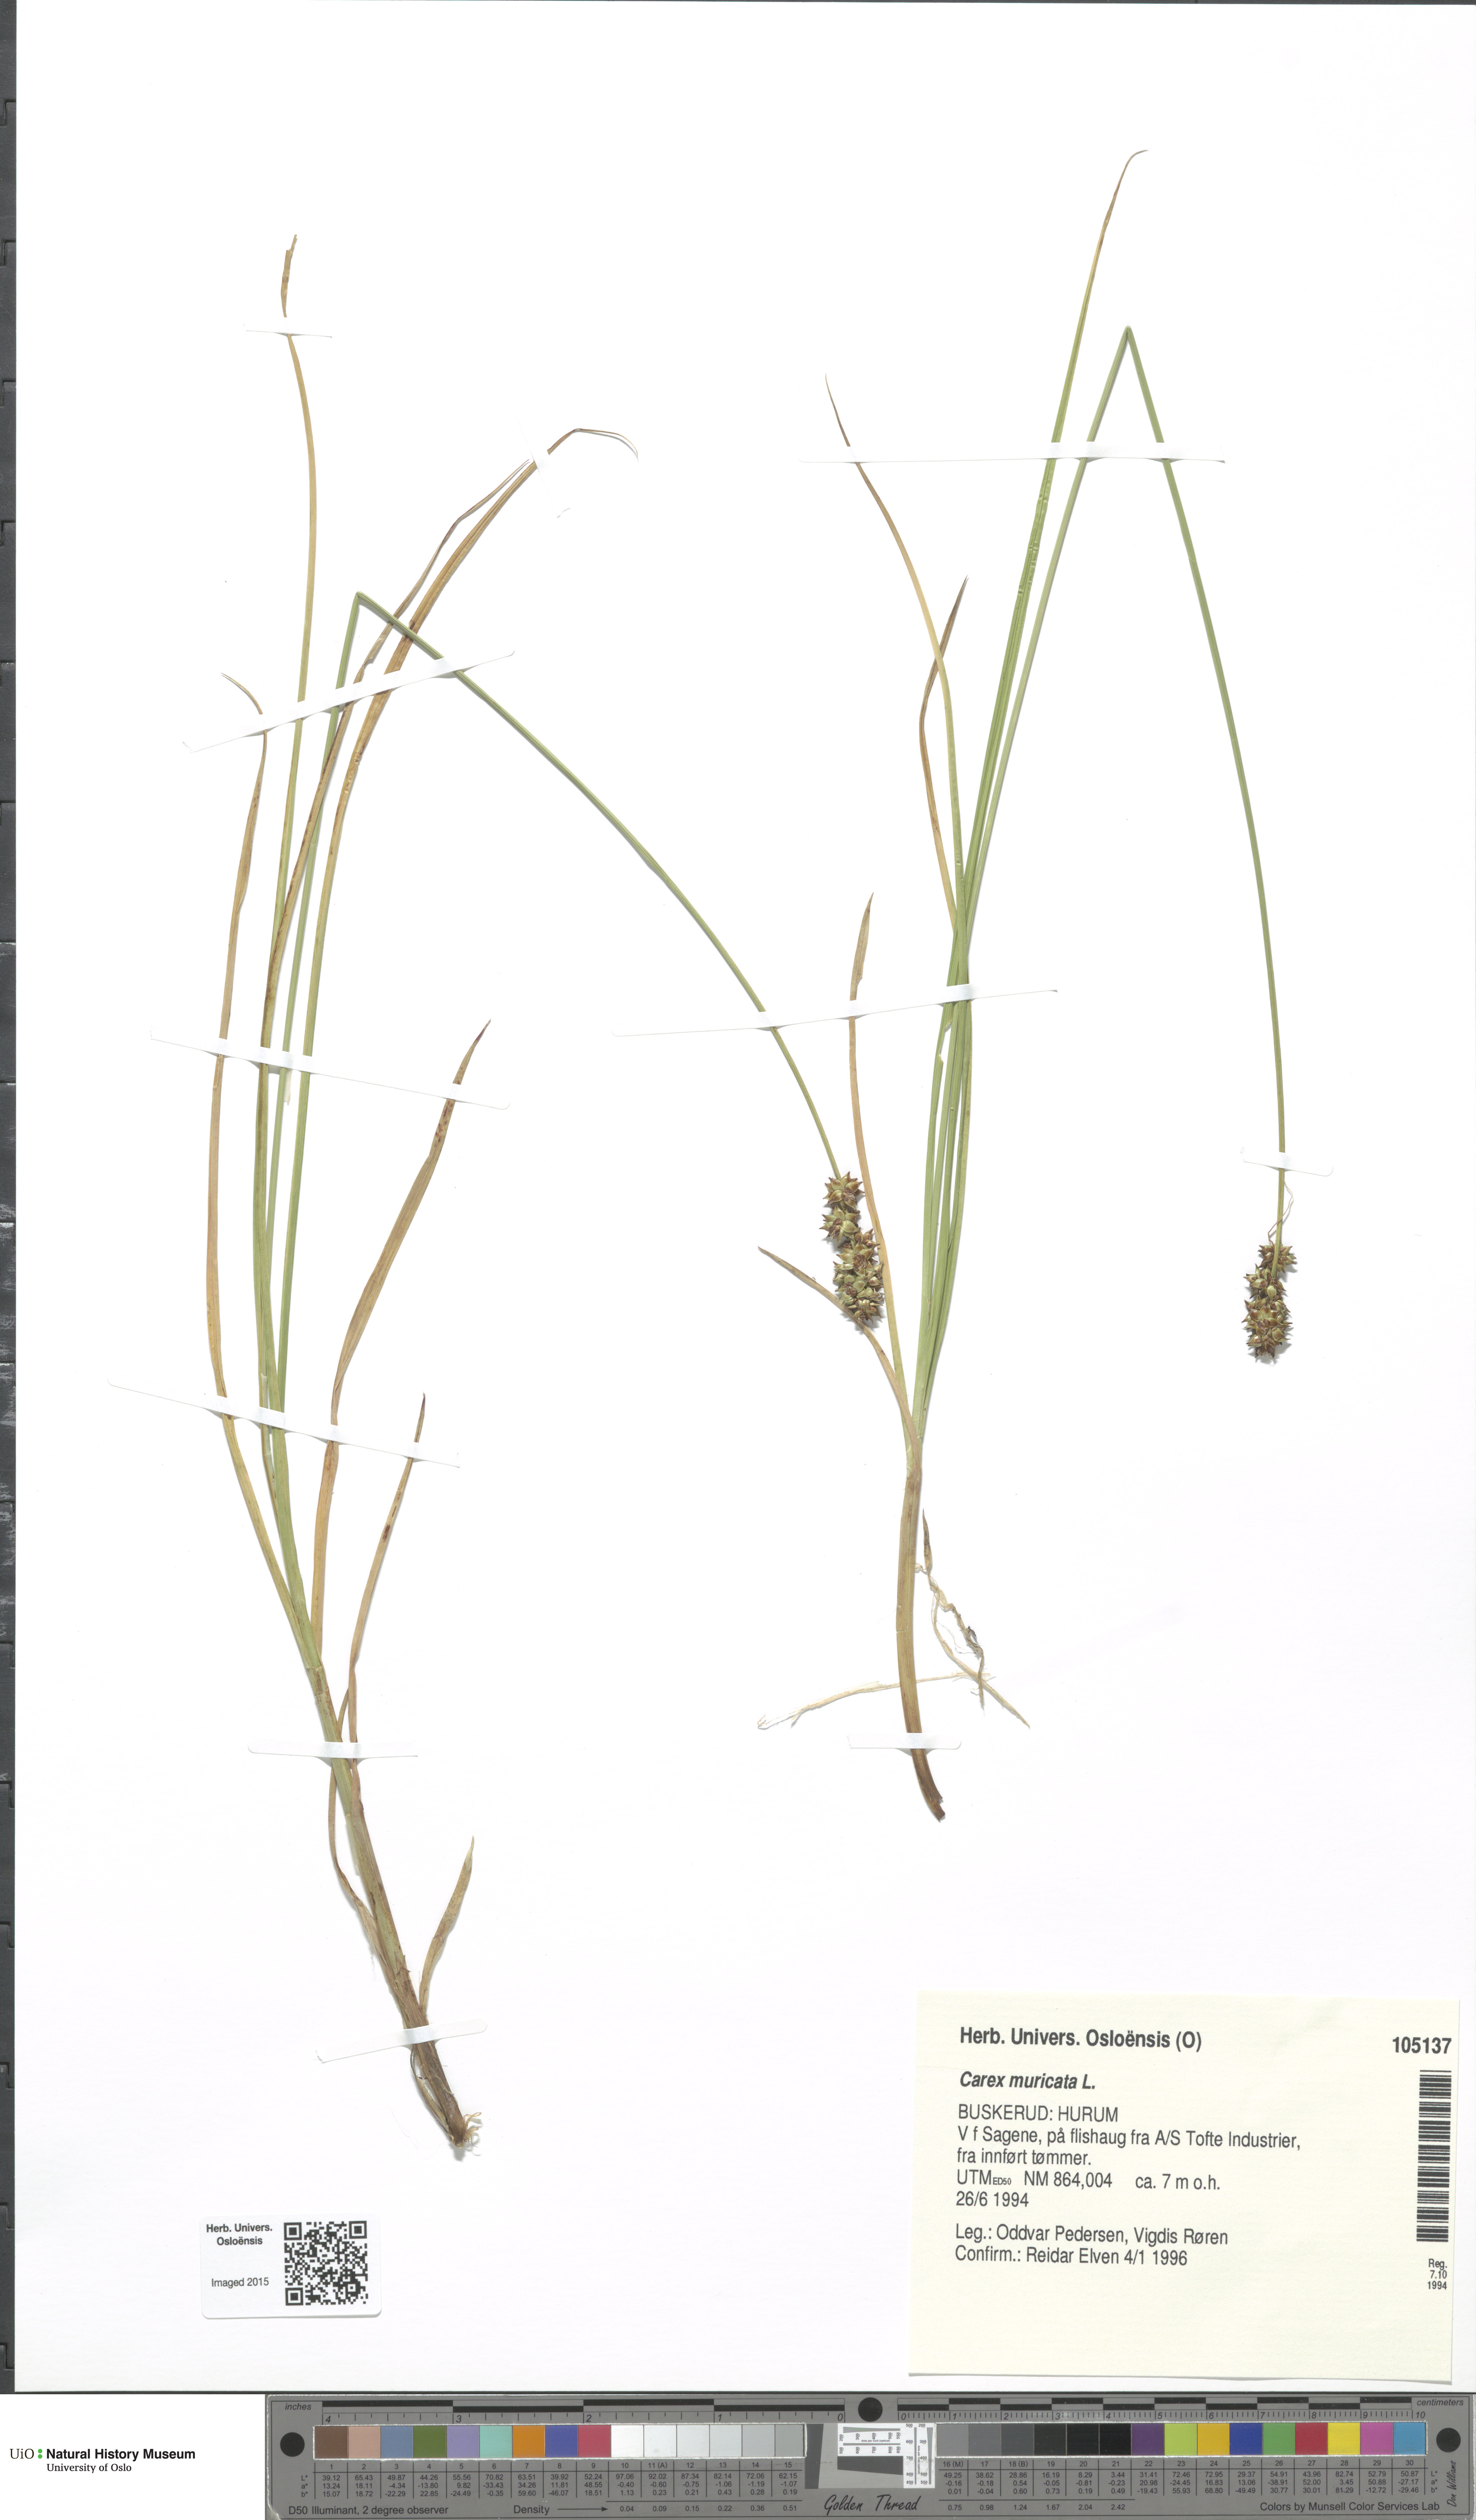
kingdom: Plantae
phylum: Tracheophyta
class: Liliopsida
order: Poales
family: Cyperaceae
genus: Carex
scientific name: Carex muricata
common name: Rough sedge
